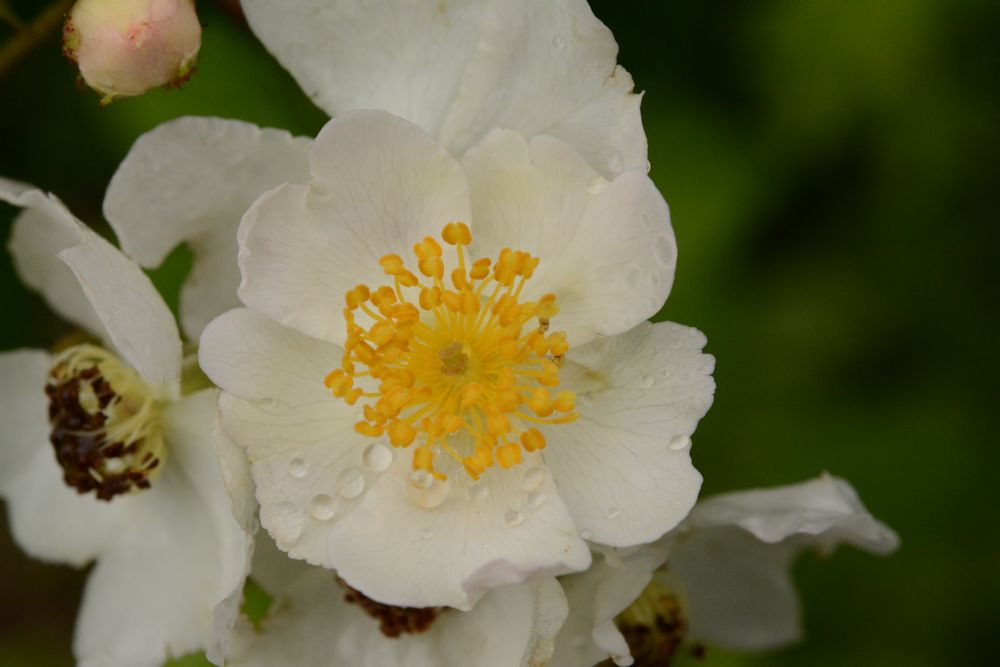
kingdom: Plantae
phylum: Tracheophyta
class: Magnoliopsida
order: Rosales
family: Rosaceae
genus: Rosa
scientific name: Rosa spinosissima
